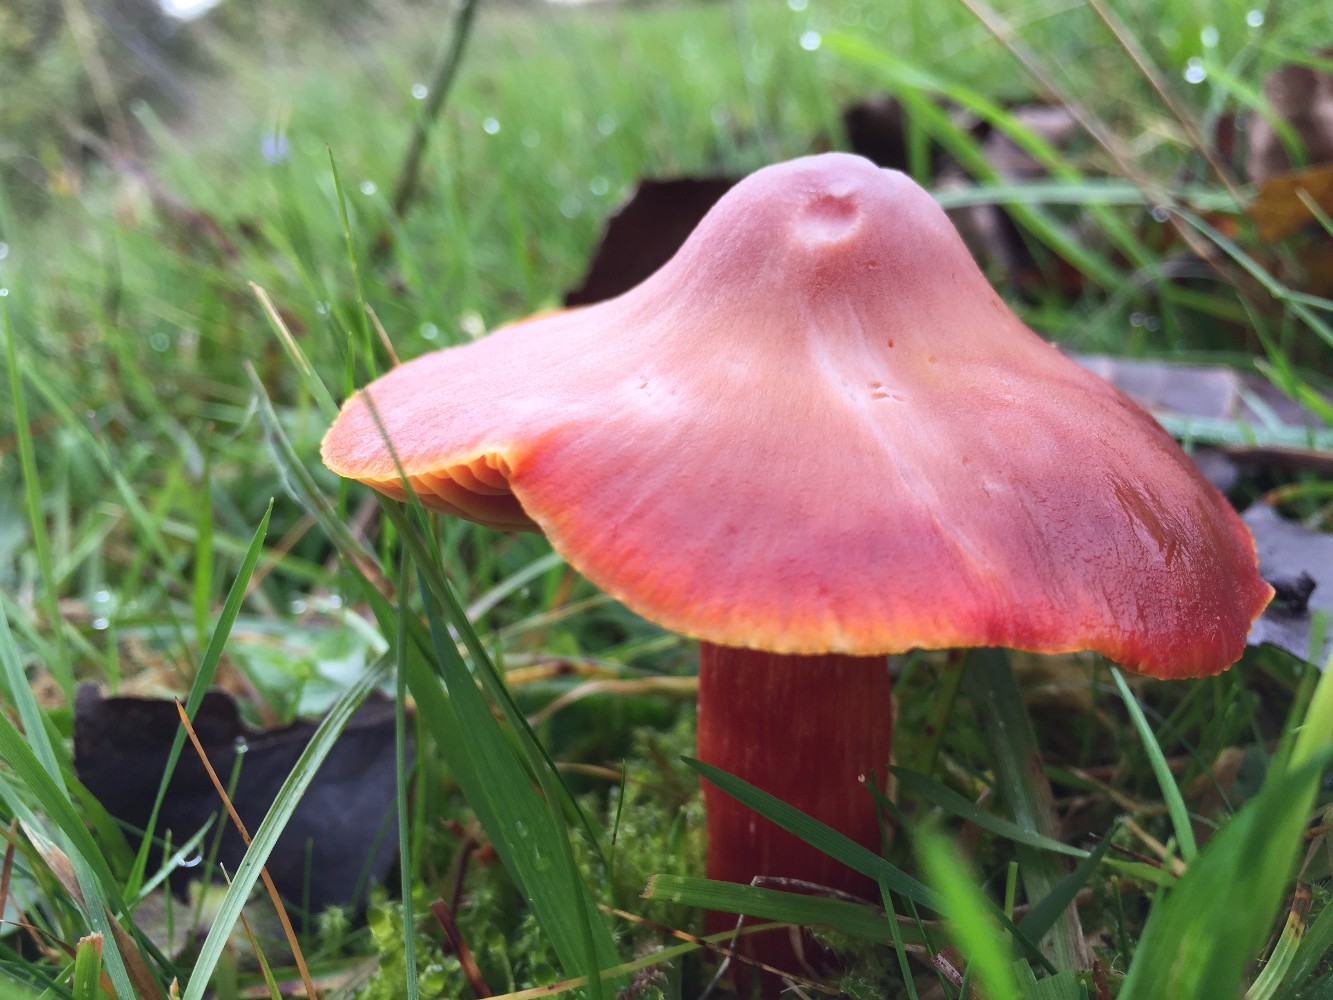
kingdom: Fungi
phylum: Basidiomycota
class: Agaricomycetes
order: Agaricales
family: Hygrophoraceae
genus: Hygrocybe
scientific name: Hygrocybe punicea
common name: skarlagen-vokshat
